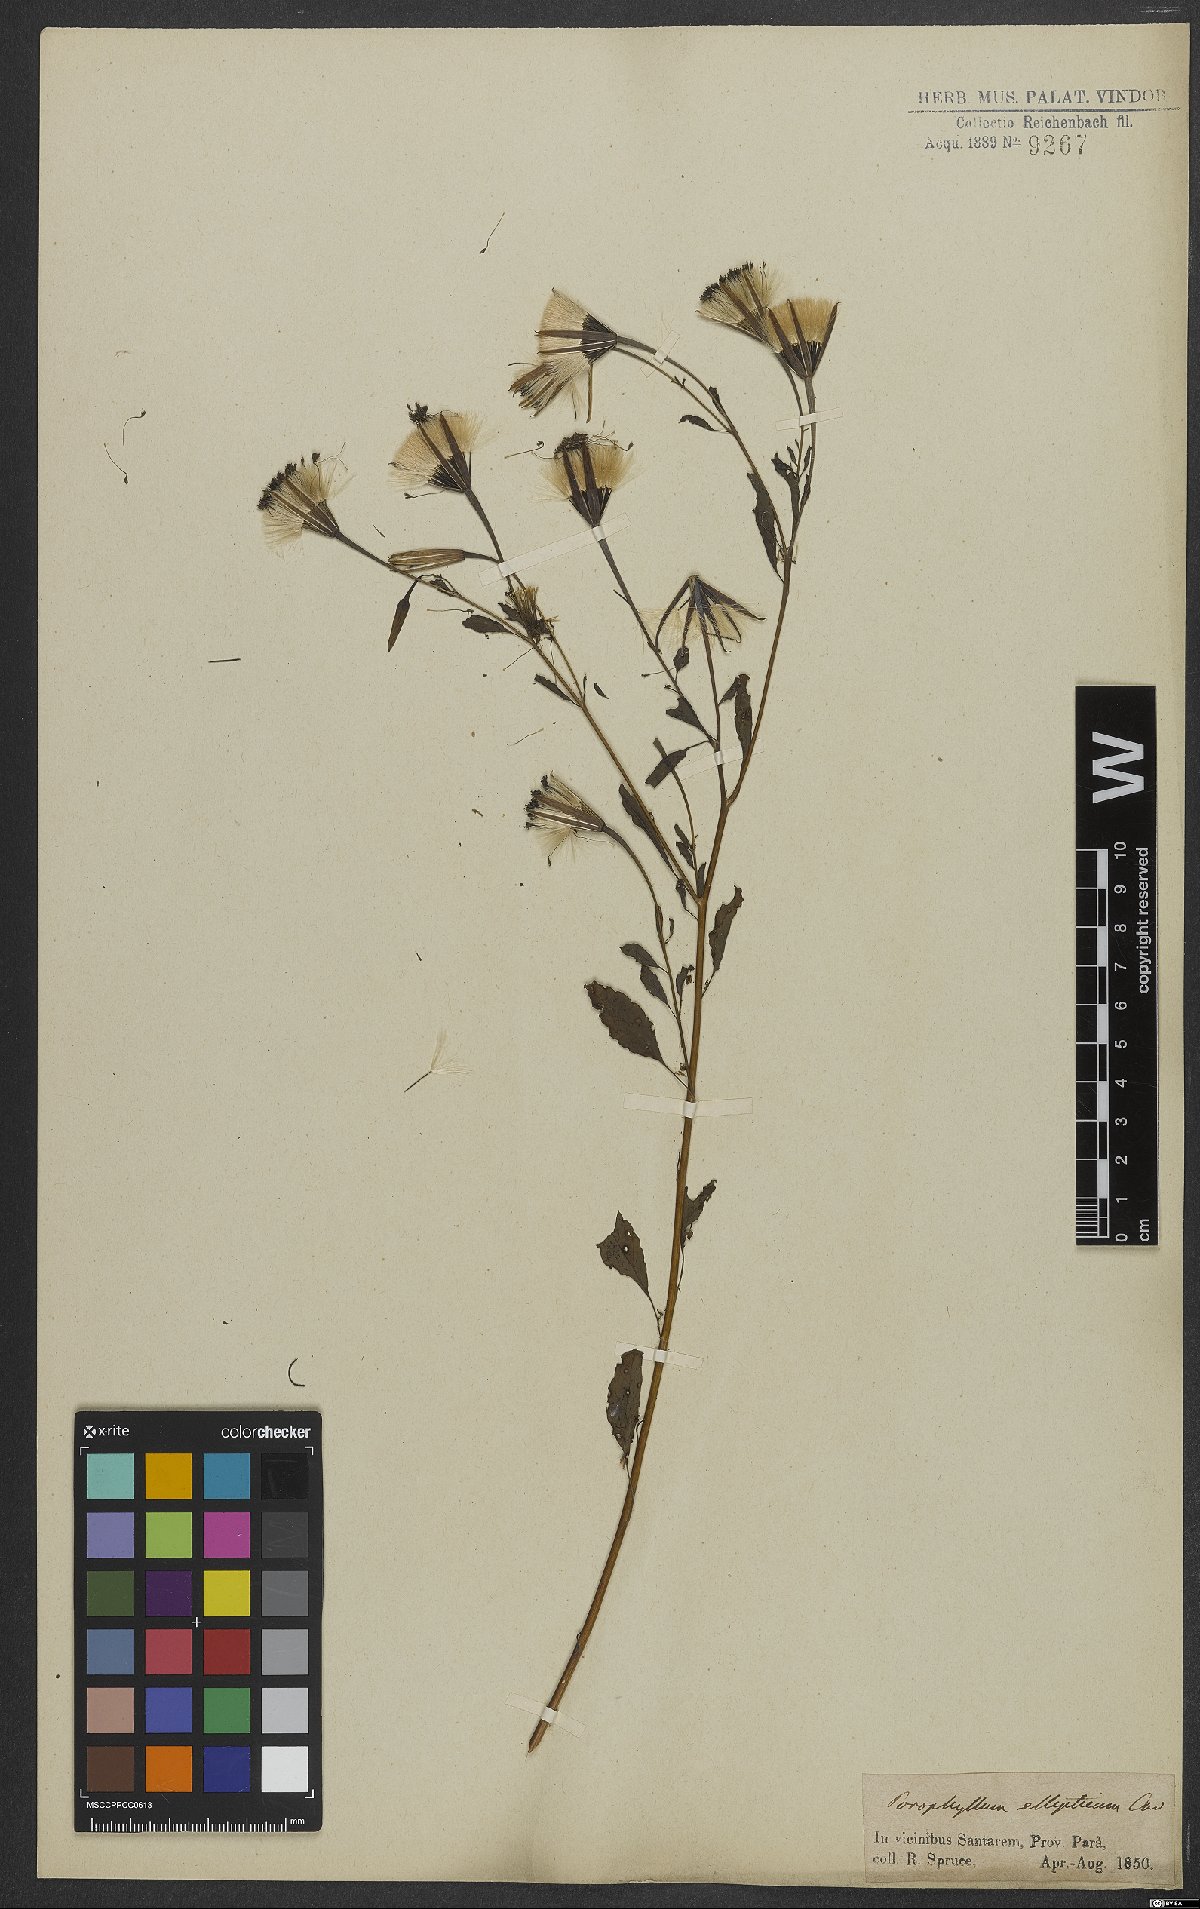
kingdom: Plantae
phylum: Tracheophyta
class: Magnoliopsida
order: Asterales
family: Asteraceae
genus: Porophyllum
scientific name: Porophyllum ruderale
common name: Yerba porosa
